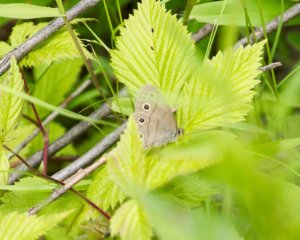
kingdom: Animalia
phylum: Arthropoda
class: Insecta
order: Lepidoptera
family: Nymphalidae
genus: Euptychia
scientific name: Euptychia cymela
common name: Little Wood Satyr
